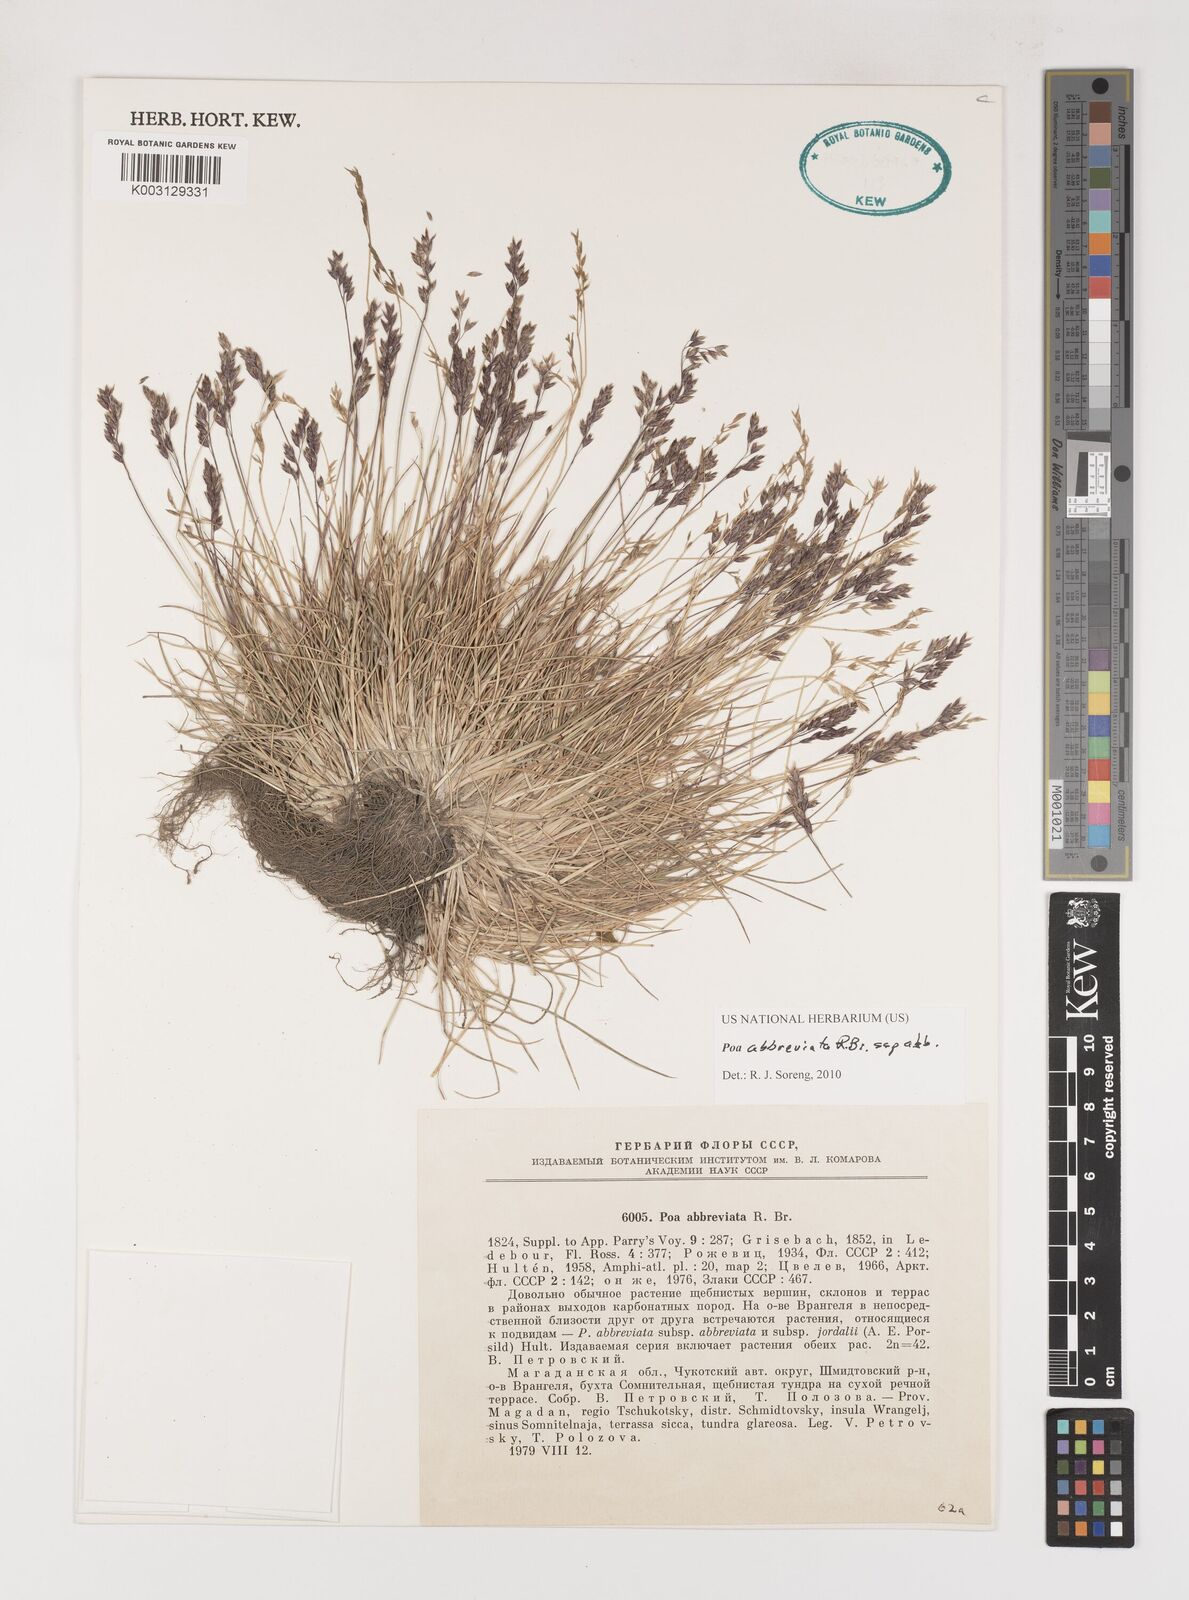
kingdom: Plantae
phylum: Tracheophyta
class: Liliopsida
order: Poales
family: Poaceae
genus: Poa
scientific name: Poa abbreviata
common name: Abbreviated bluegrass
